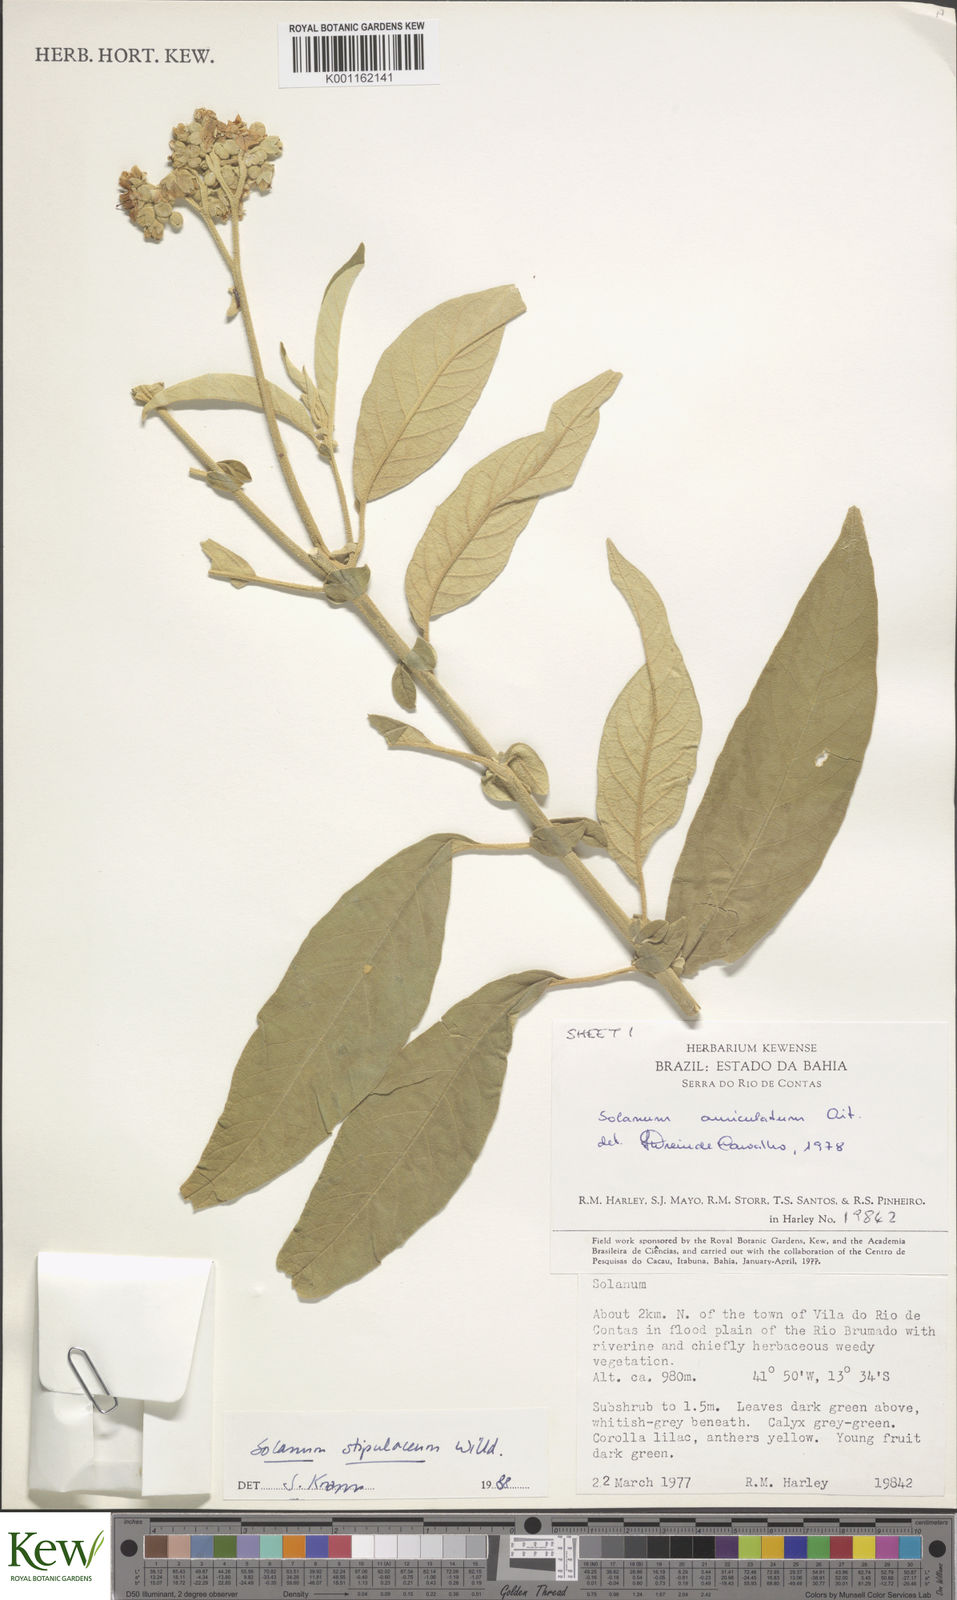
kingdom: Plantae
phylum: Tracheophyta
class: Magnoliopsida
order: Solanales
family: Solanaceae
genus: Solanum
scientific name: Solanum stipulaceum
